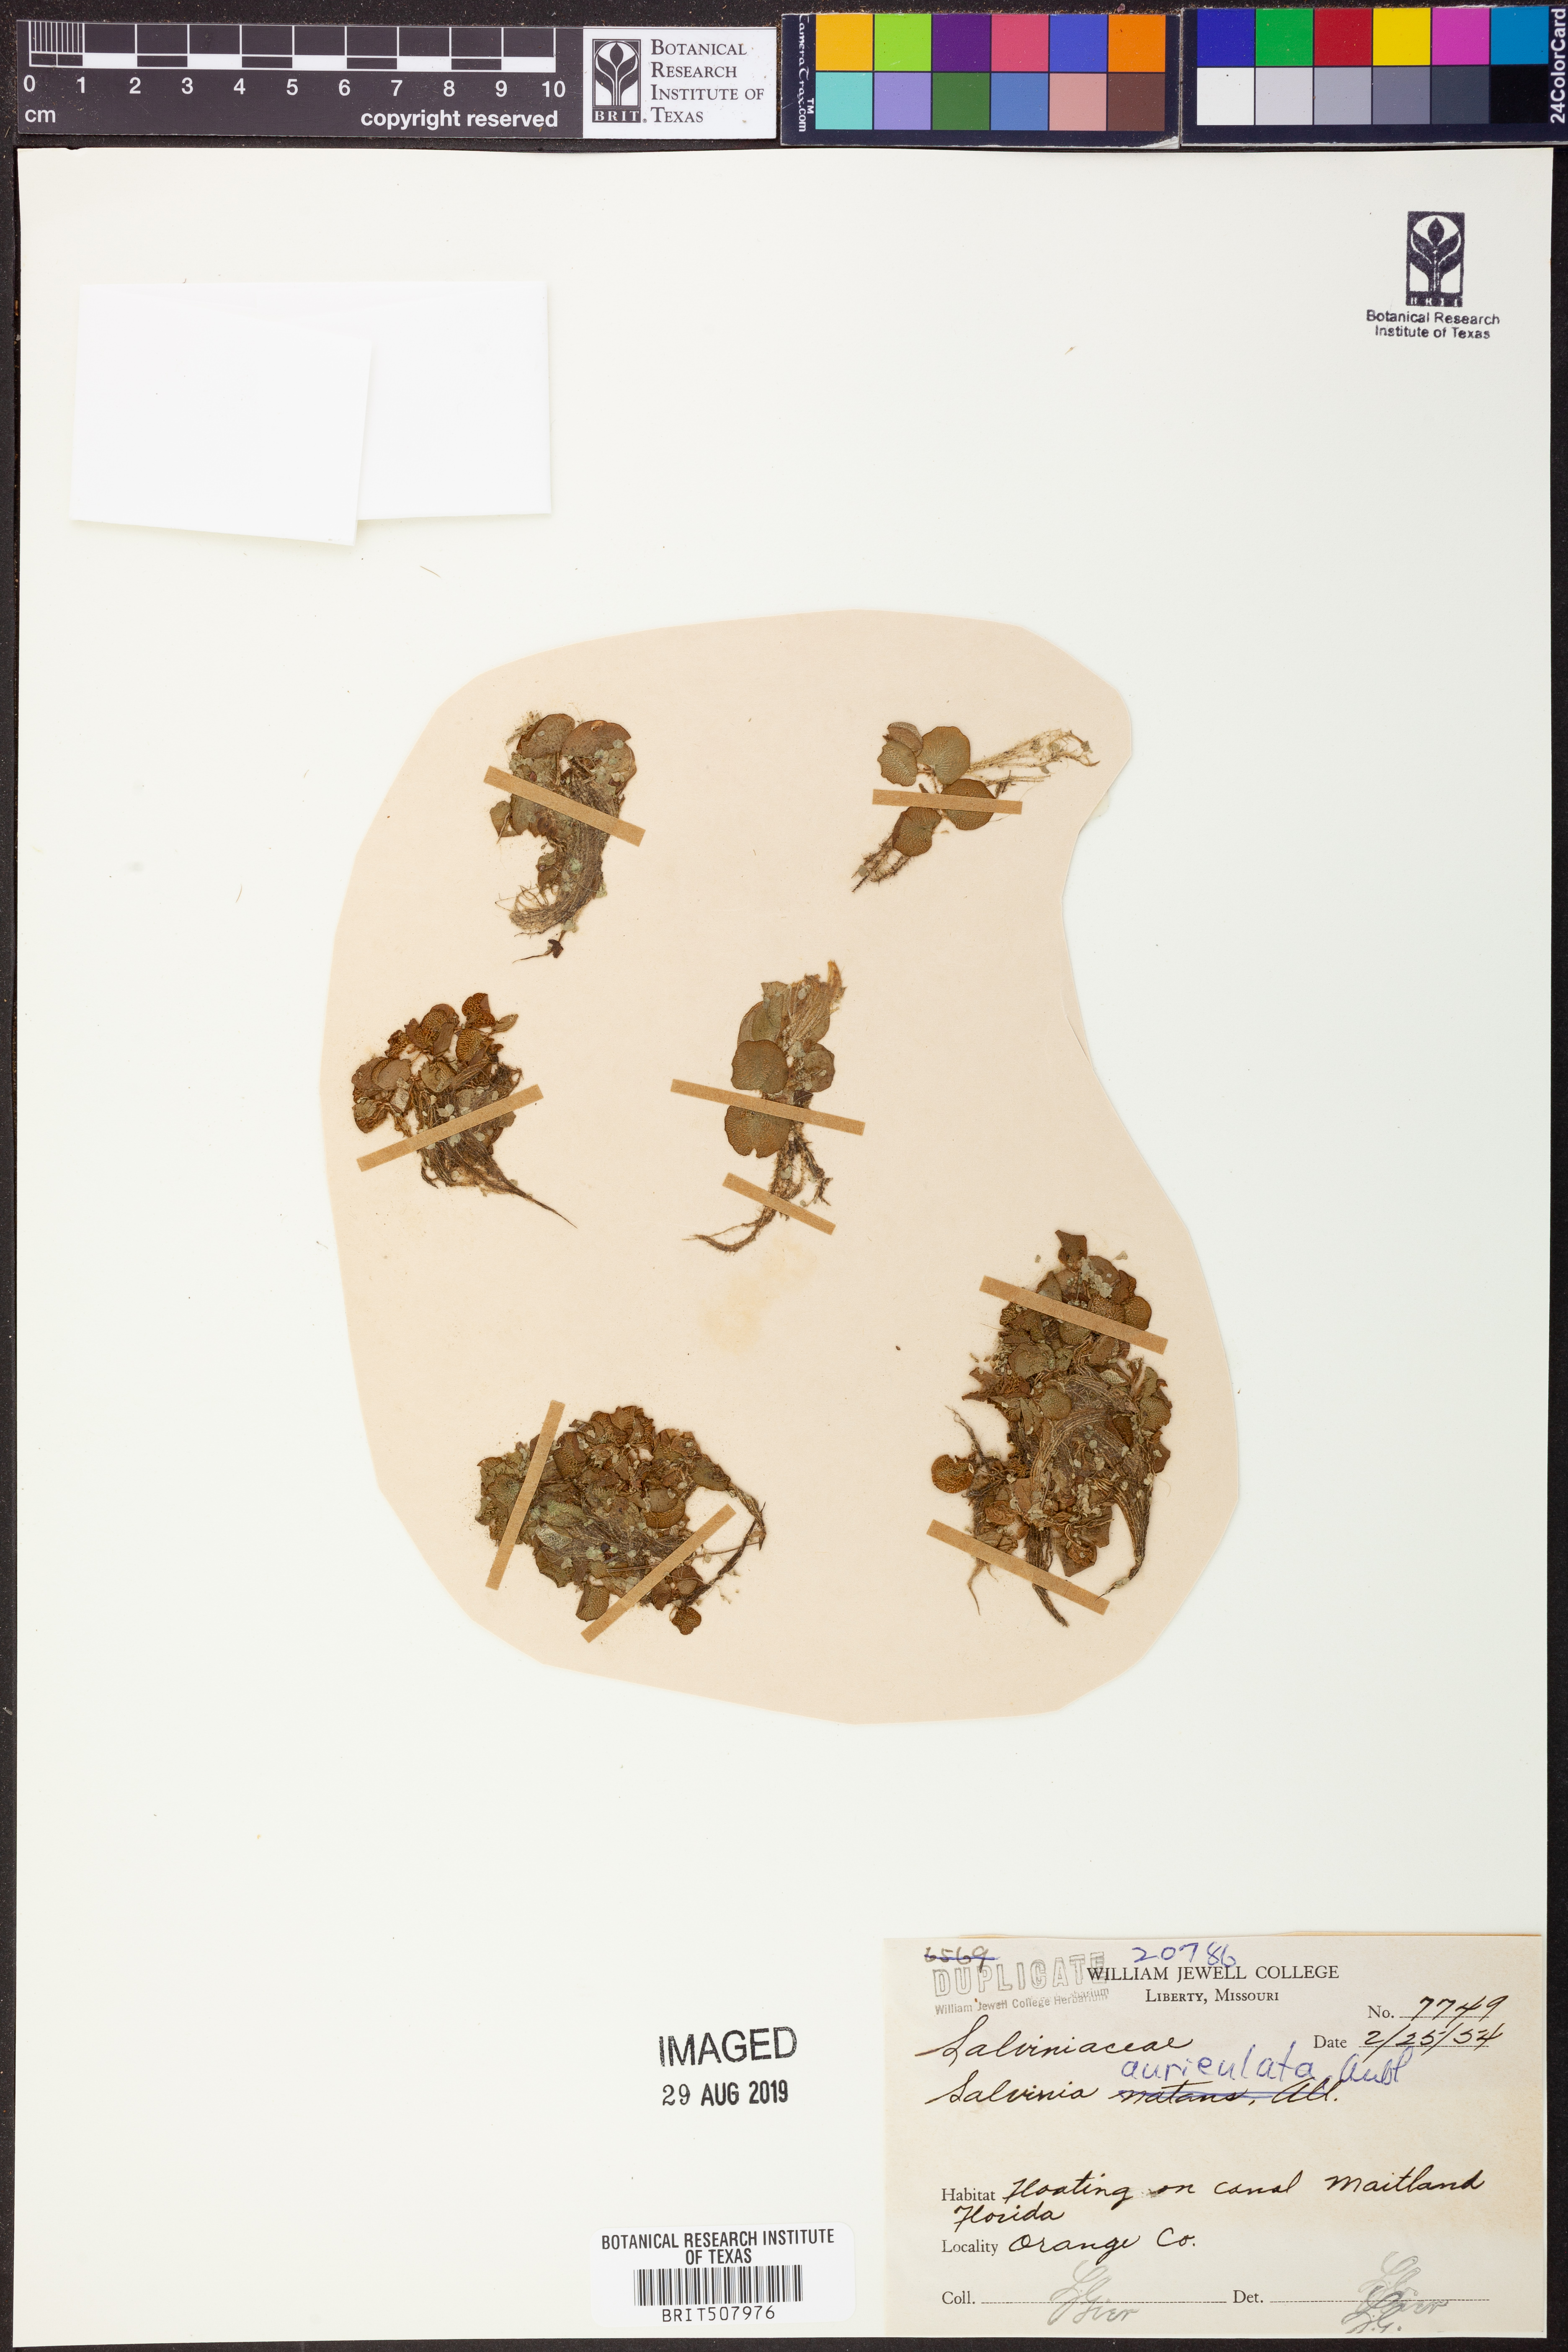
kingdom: Plantae
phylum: Tracheophyta
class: Polypodiopsida
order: Salviniales
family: Salviniaceae
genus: Salvinia
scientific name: Salvinia auriculata
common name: African payal
